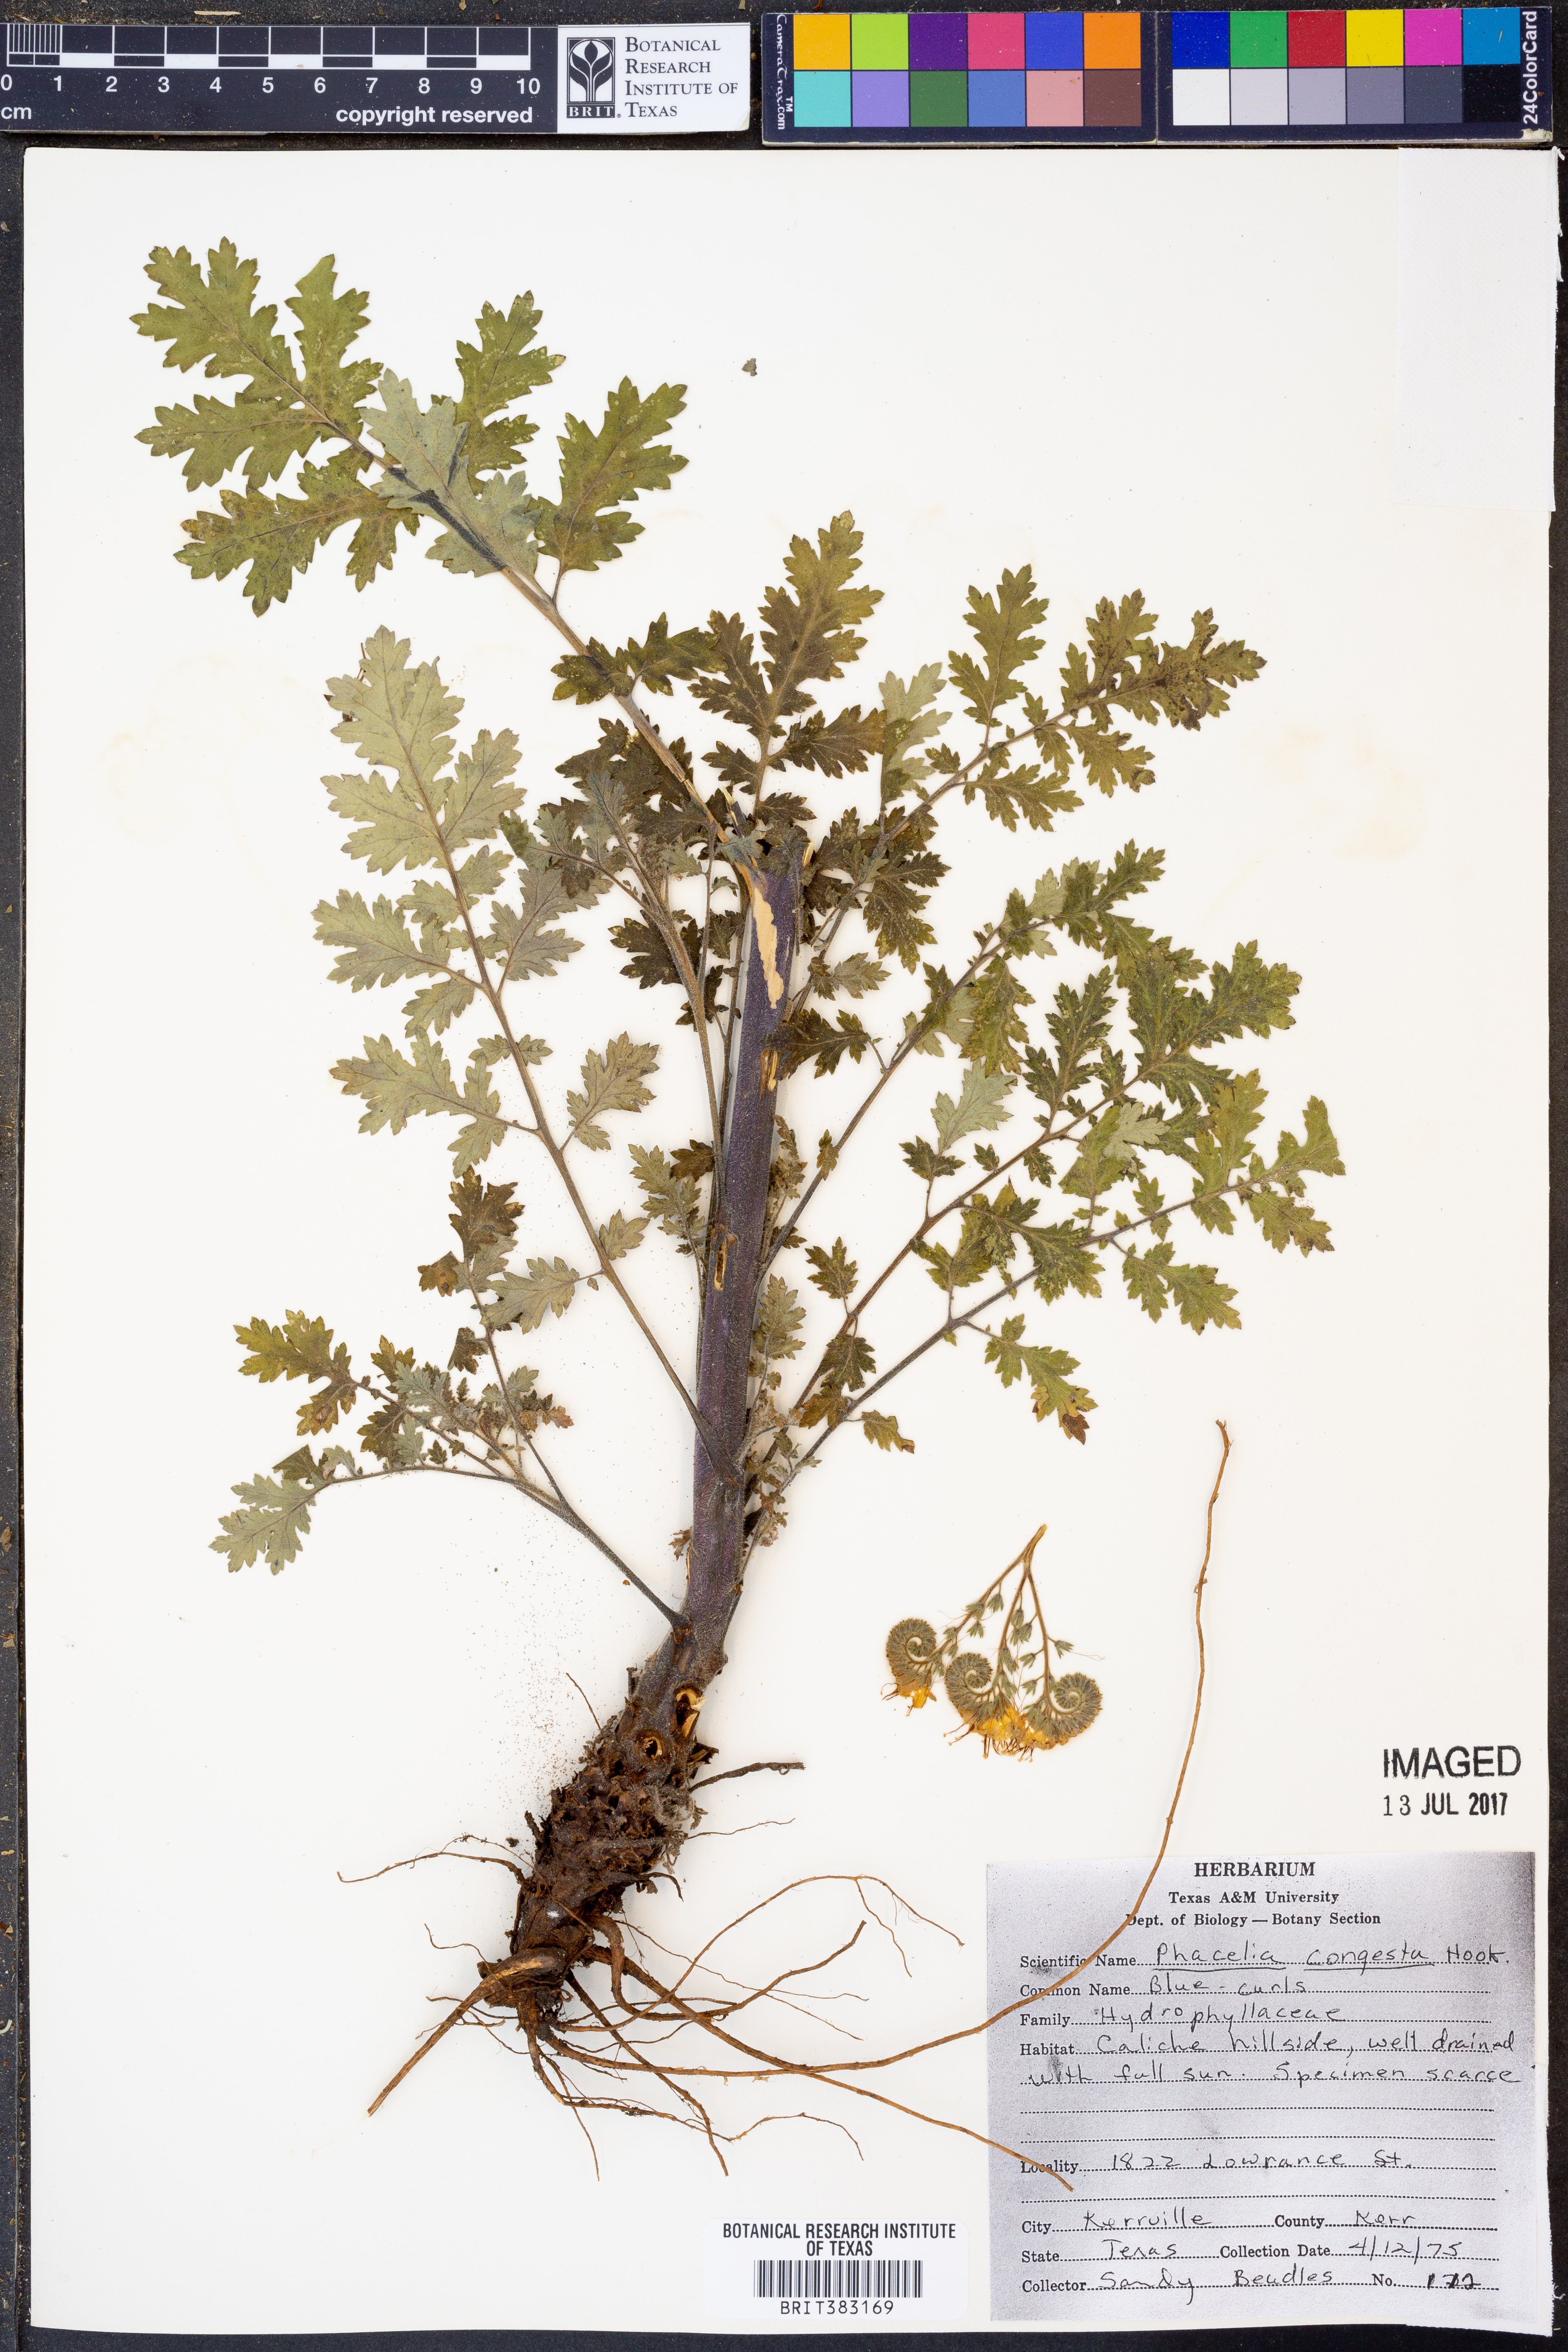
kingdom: Plantae
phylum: Tracheophyta
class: Magnoliopsida
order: Boraginales
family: Hydrophyllaceae
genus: Phacelia
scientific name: Phacelia congesta
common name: Blue curls
